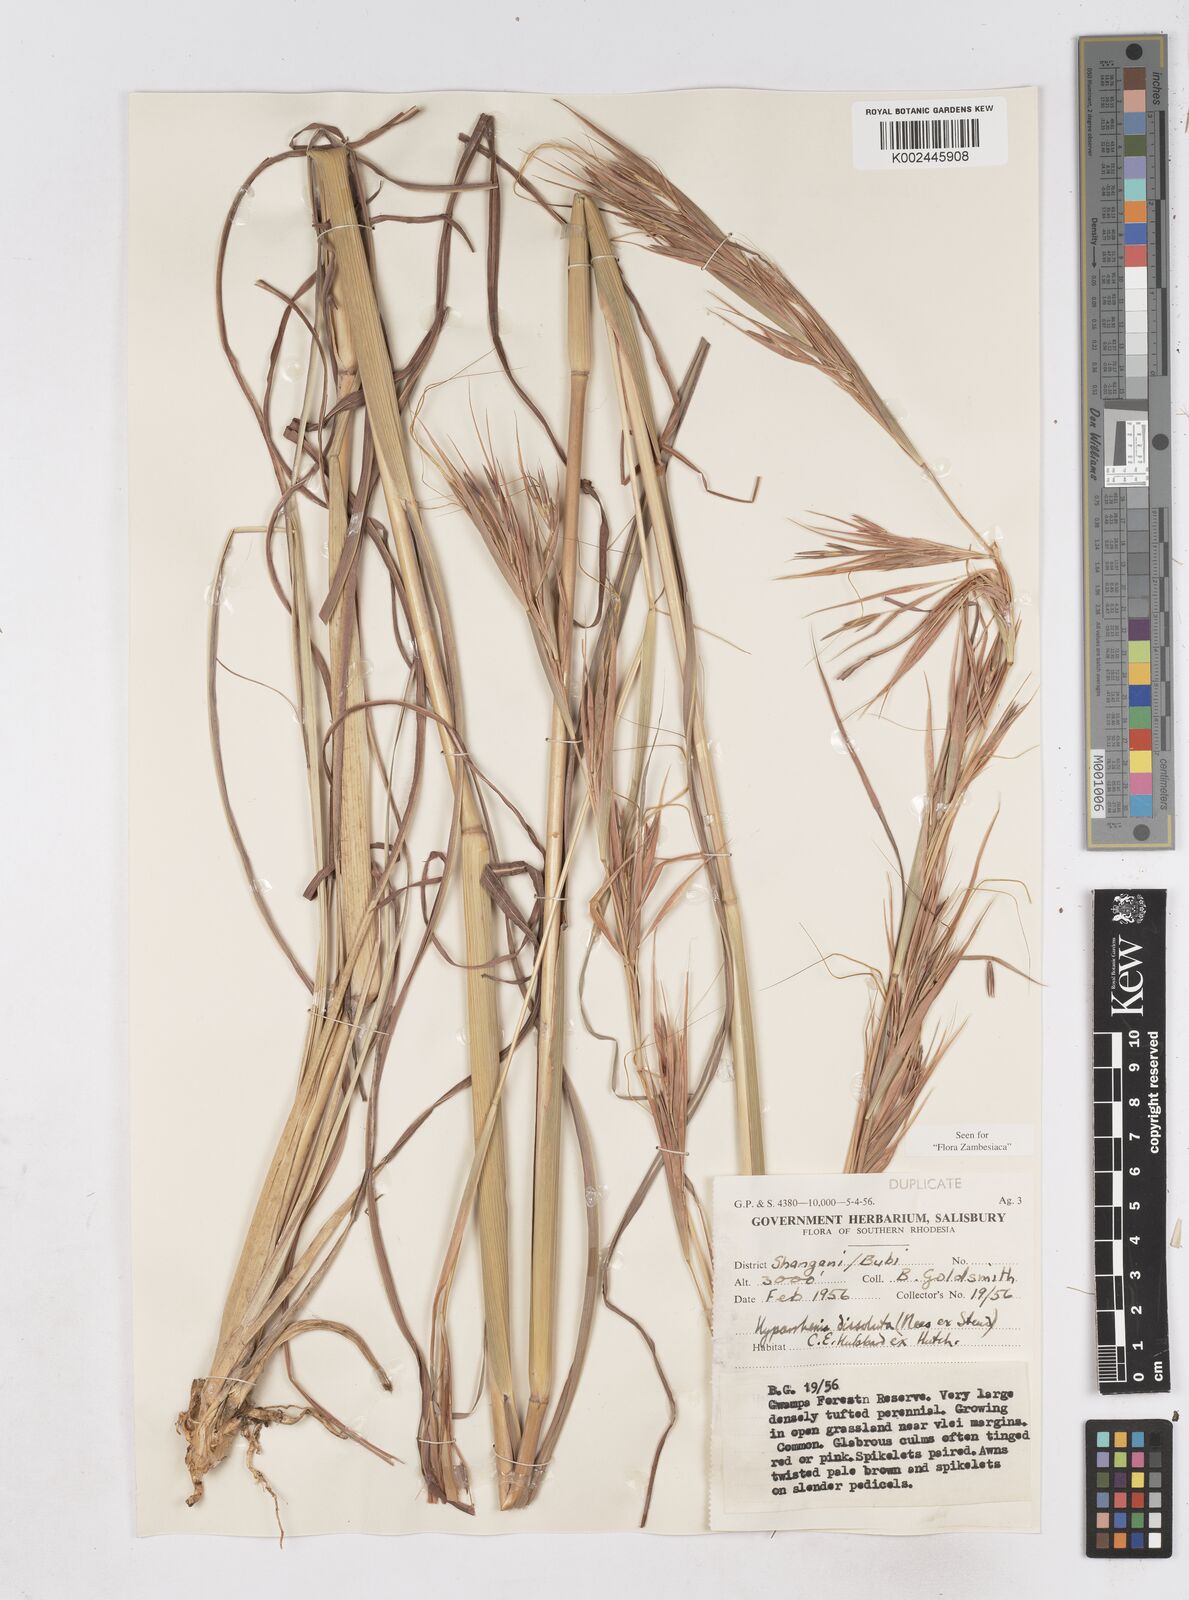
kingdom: Plantae
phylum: Tracheophyta
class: Liliopsida
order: Poales
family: Poaceae
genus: Hyperthelia
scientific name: Hyperthelia dissoluta
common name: Yellow thatching grass
